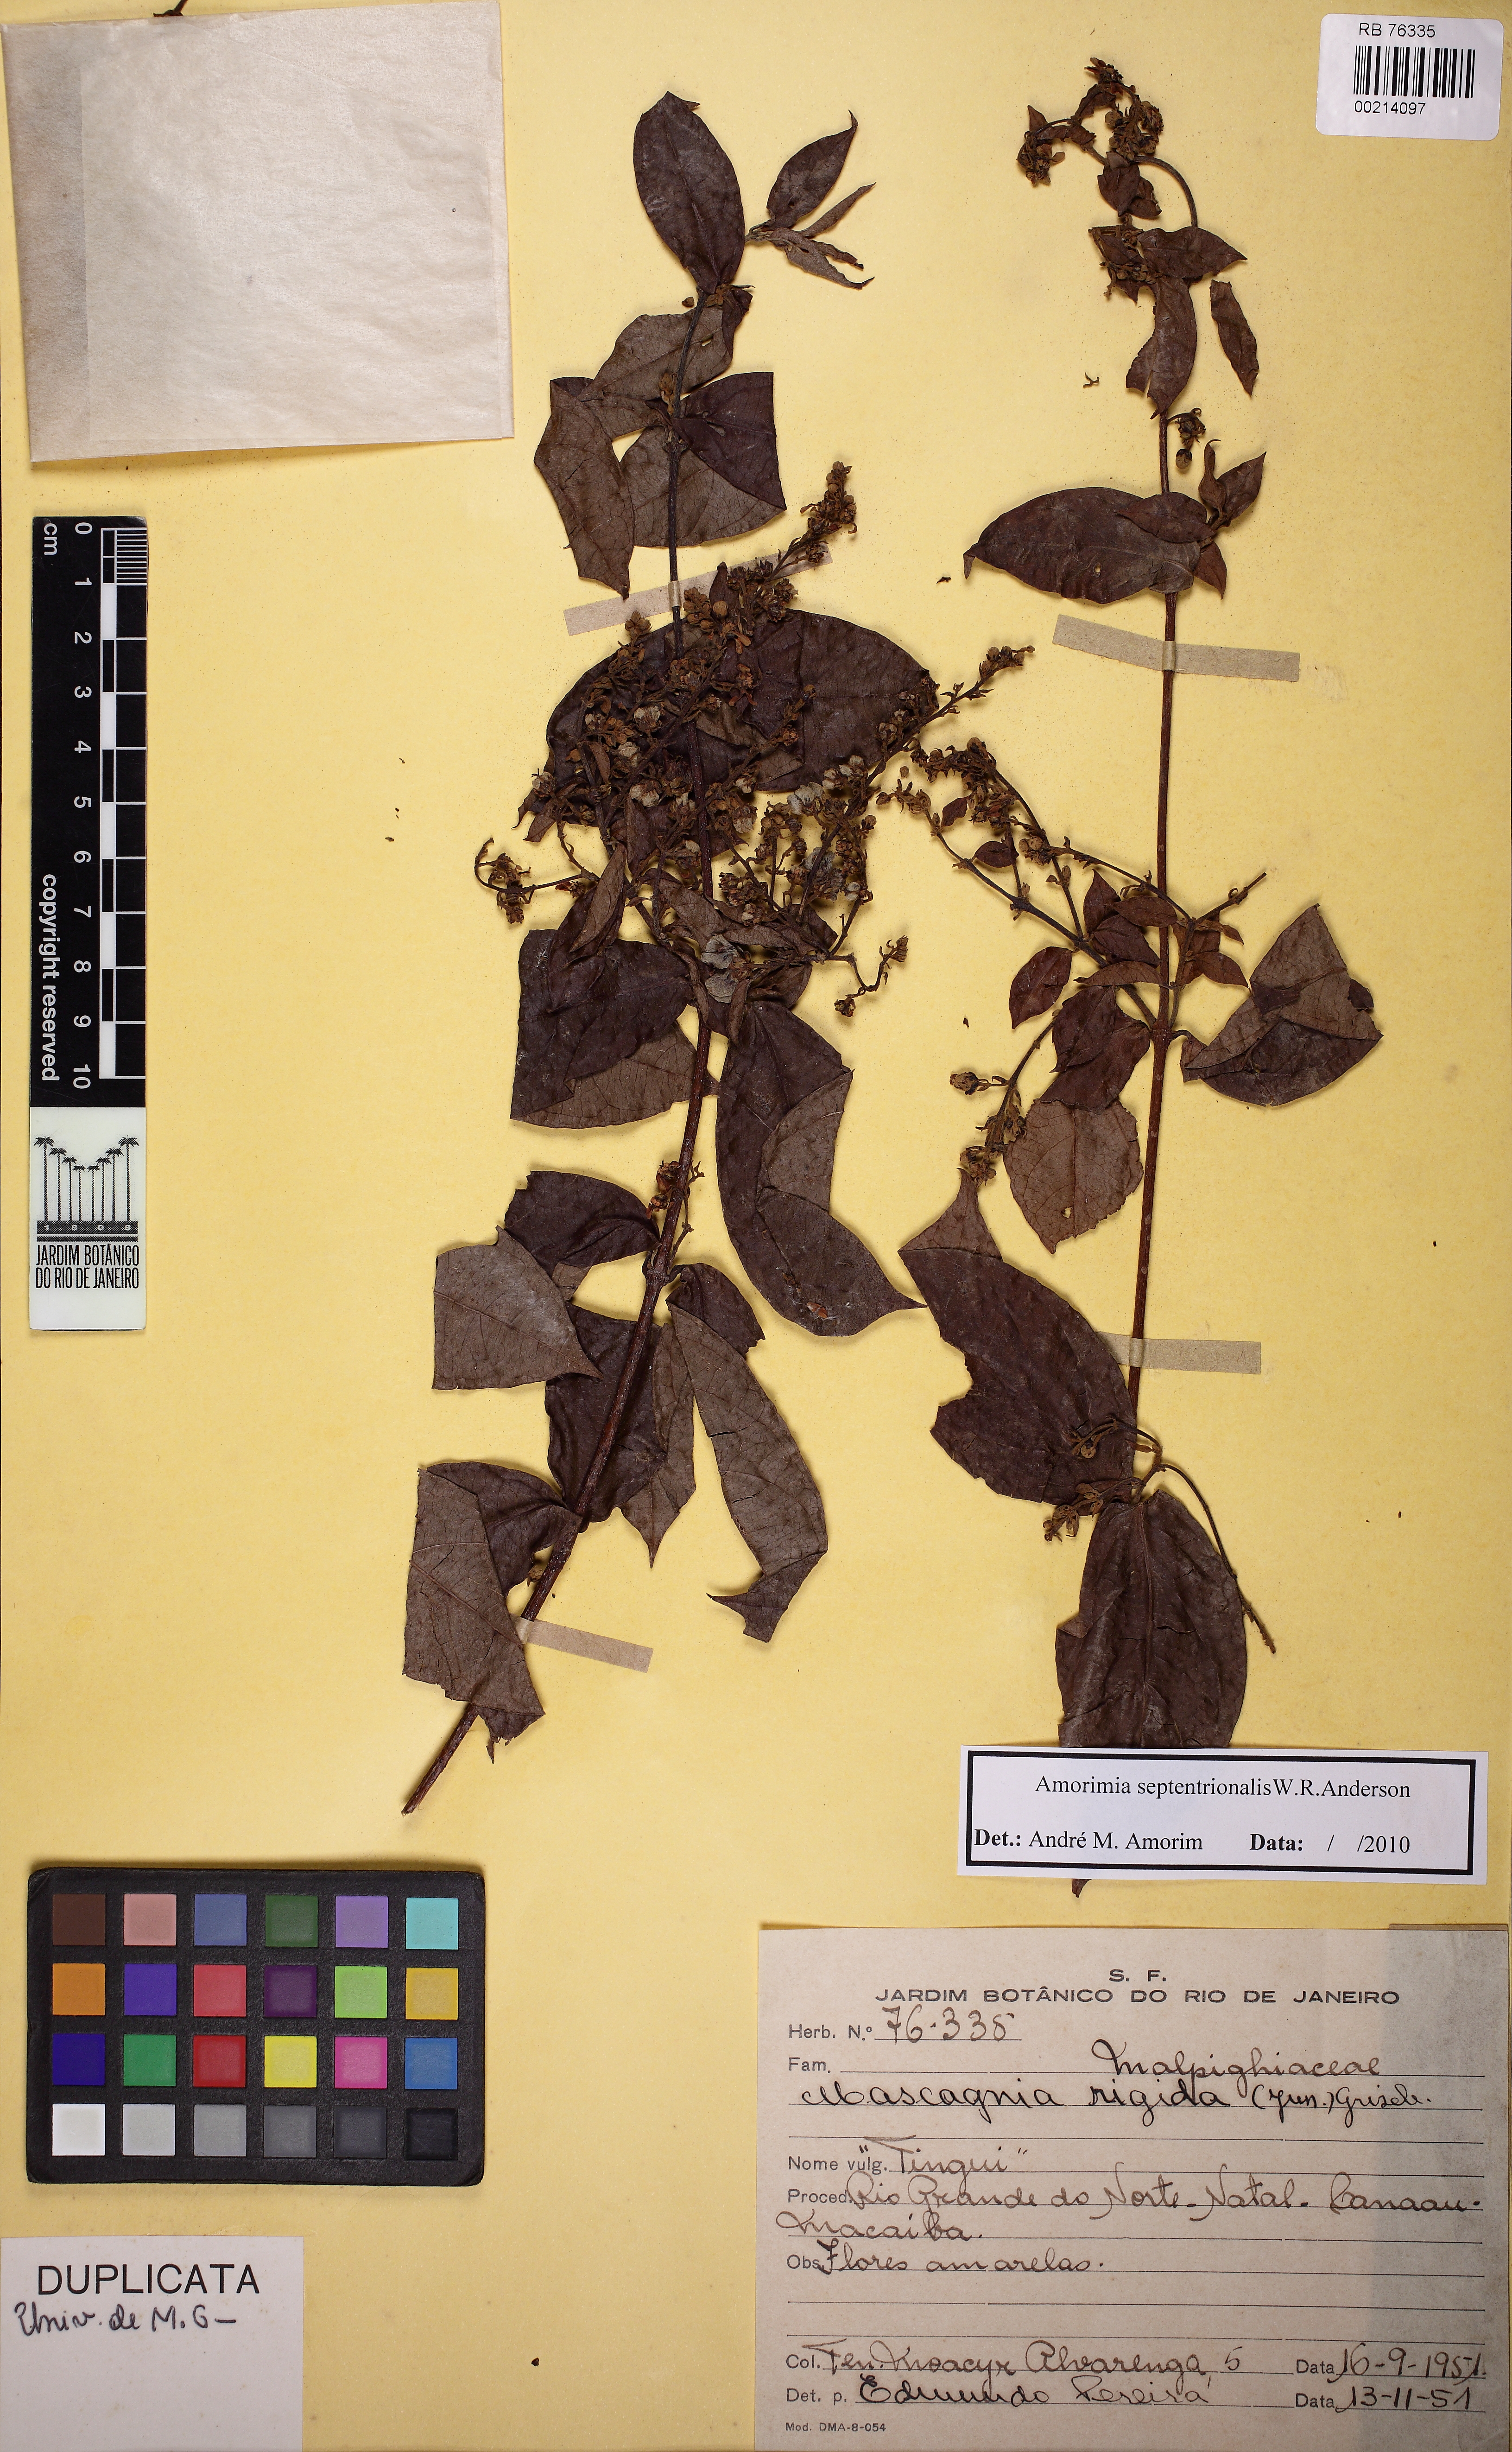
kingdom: Plantae
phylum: Tracheophyta
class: Magnoliopsida
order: Malpighiales
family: Malpighiaceae
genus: Amorimia
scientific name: Amorimia septentrionalis
